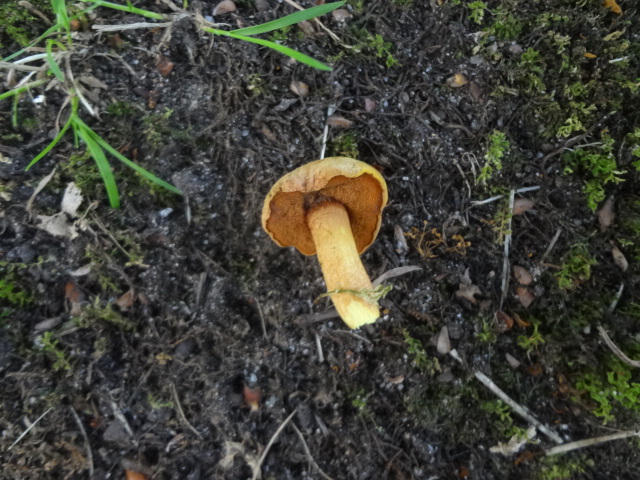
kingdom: Fungi
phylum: Basidiomycota
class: Agaricomycetes
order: Boletales
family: Boletaceae
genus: Chalciporus
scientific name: Chalciporus piperatus
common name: peberrørhat
